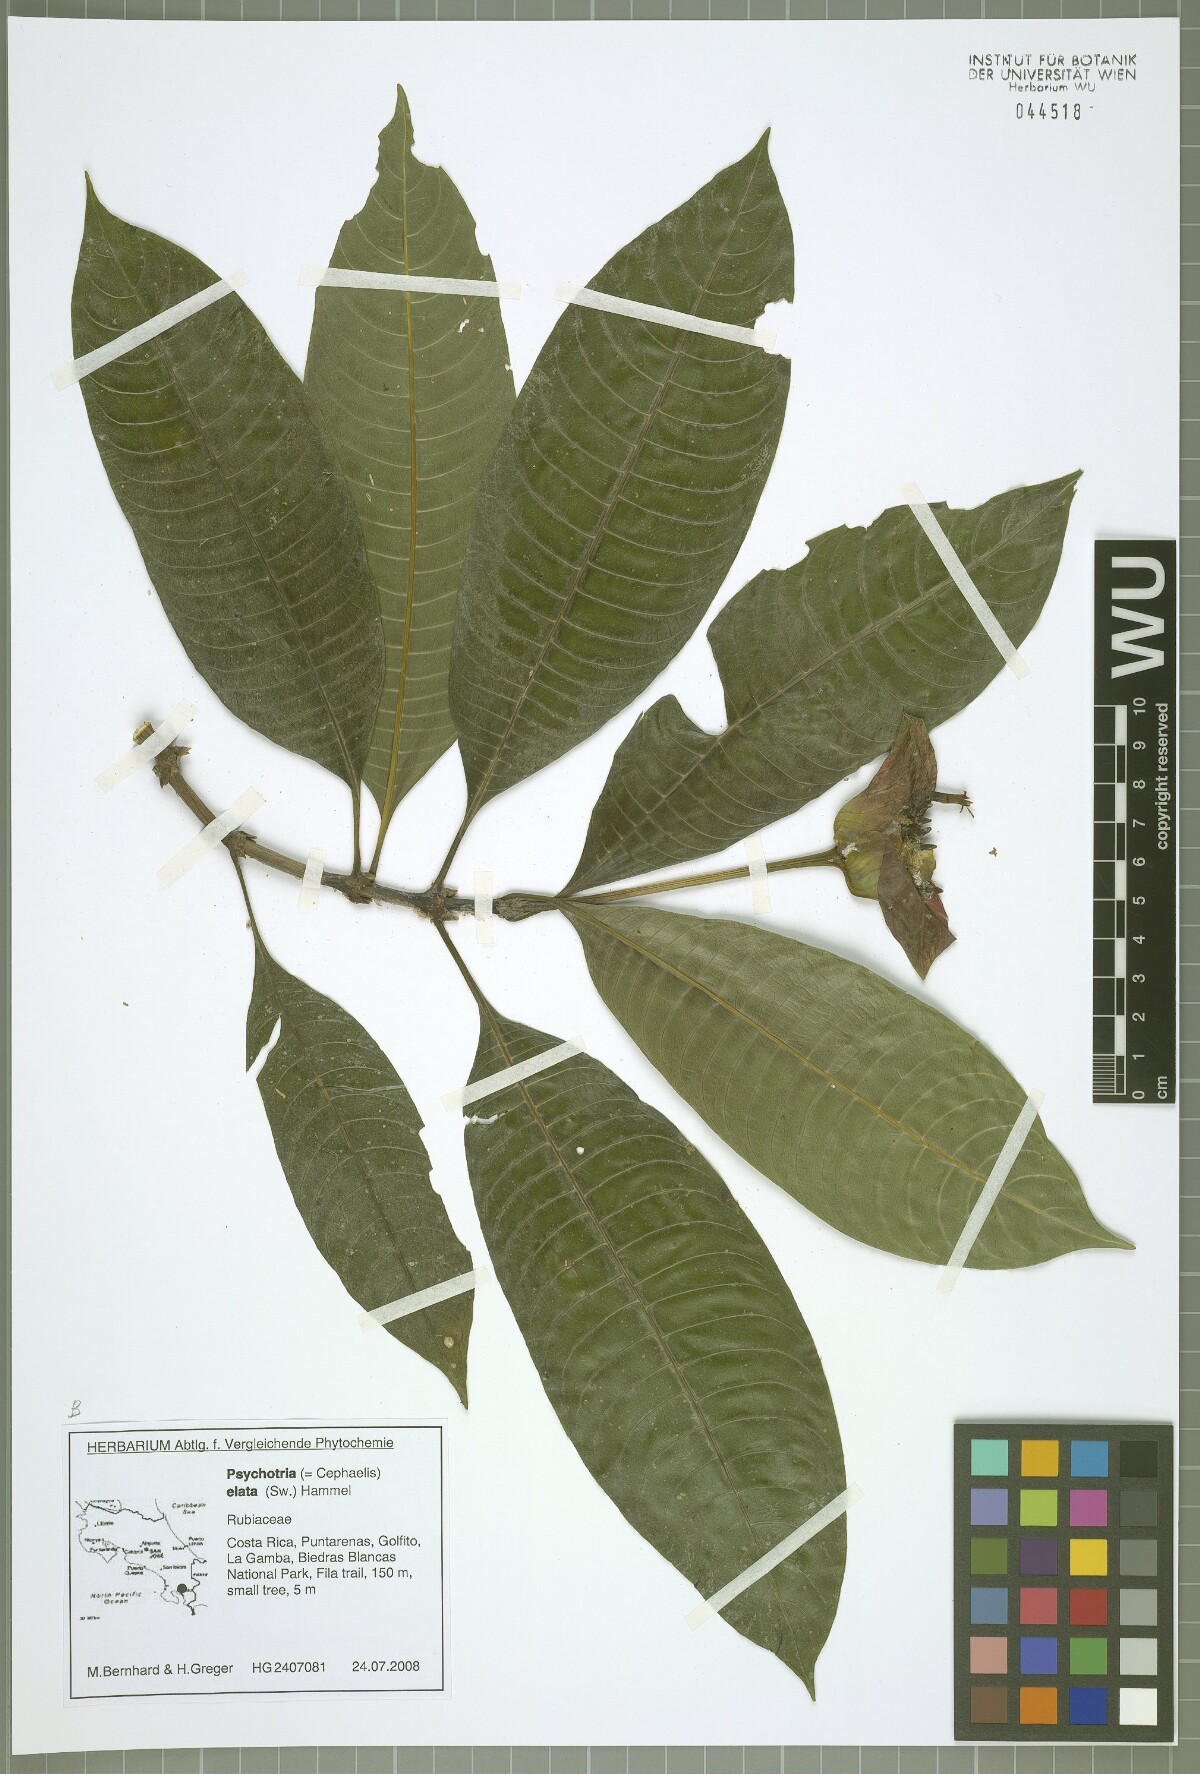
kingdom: Plantae
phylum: Tracheophyta
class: Magnoliopsida
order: Gentianales
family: Rubiaceae
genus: Palicourea
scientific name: Palicourea elata
